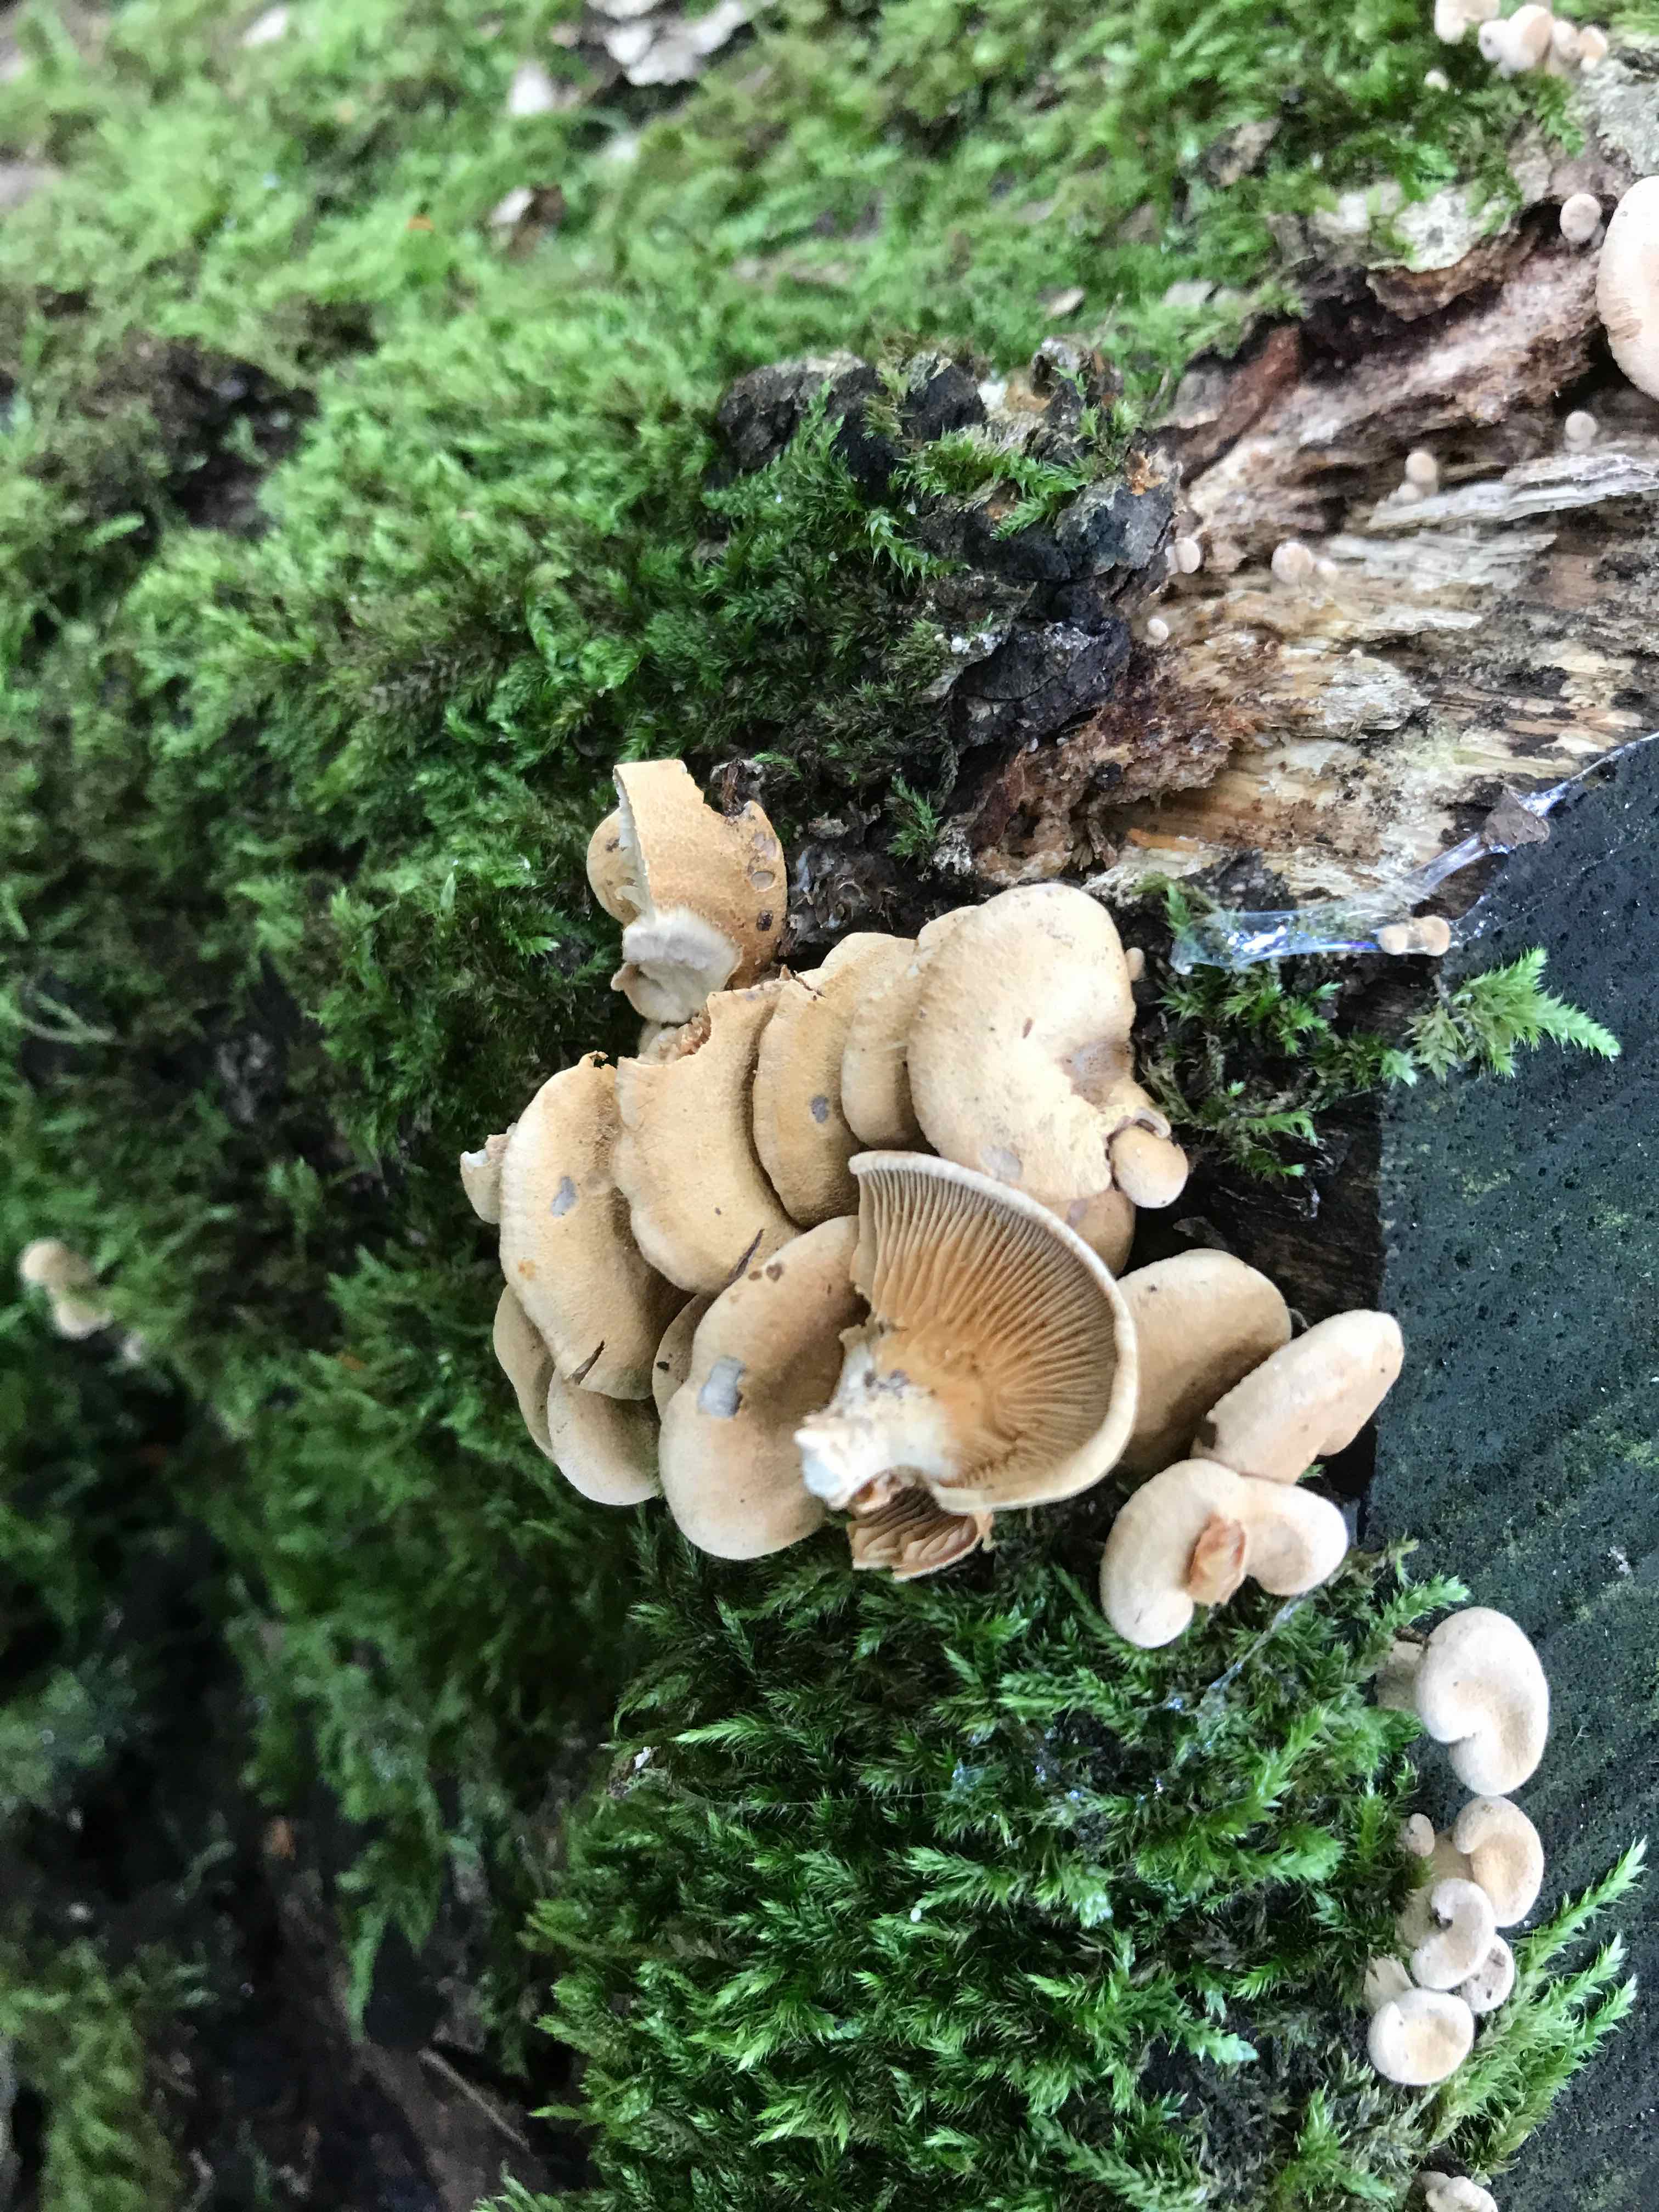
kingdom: Fungi
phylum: Basidiomycota
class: Agaricomycetes
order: Agaricales
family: Mycenaceae
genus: Panellus
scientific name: Panellus stipticus
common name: kliddet epaulethat
